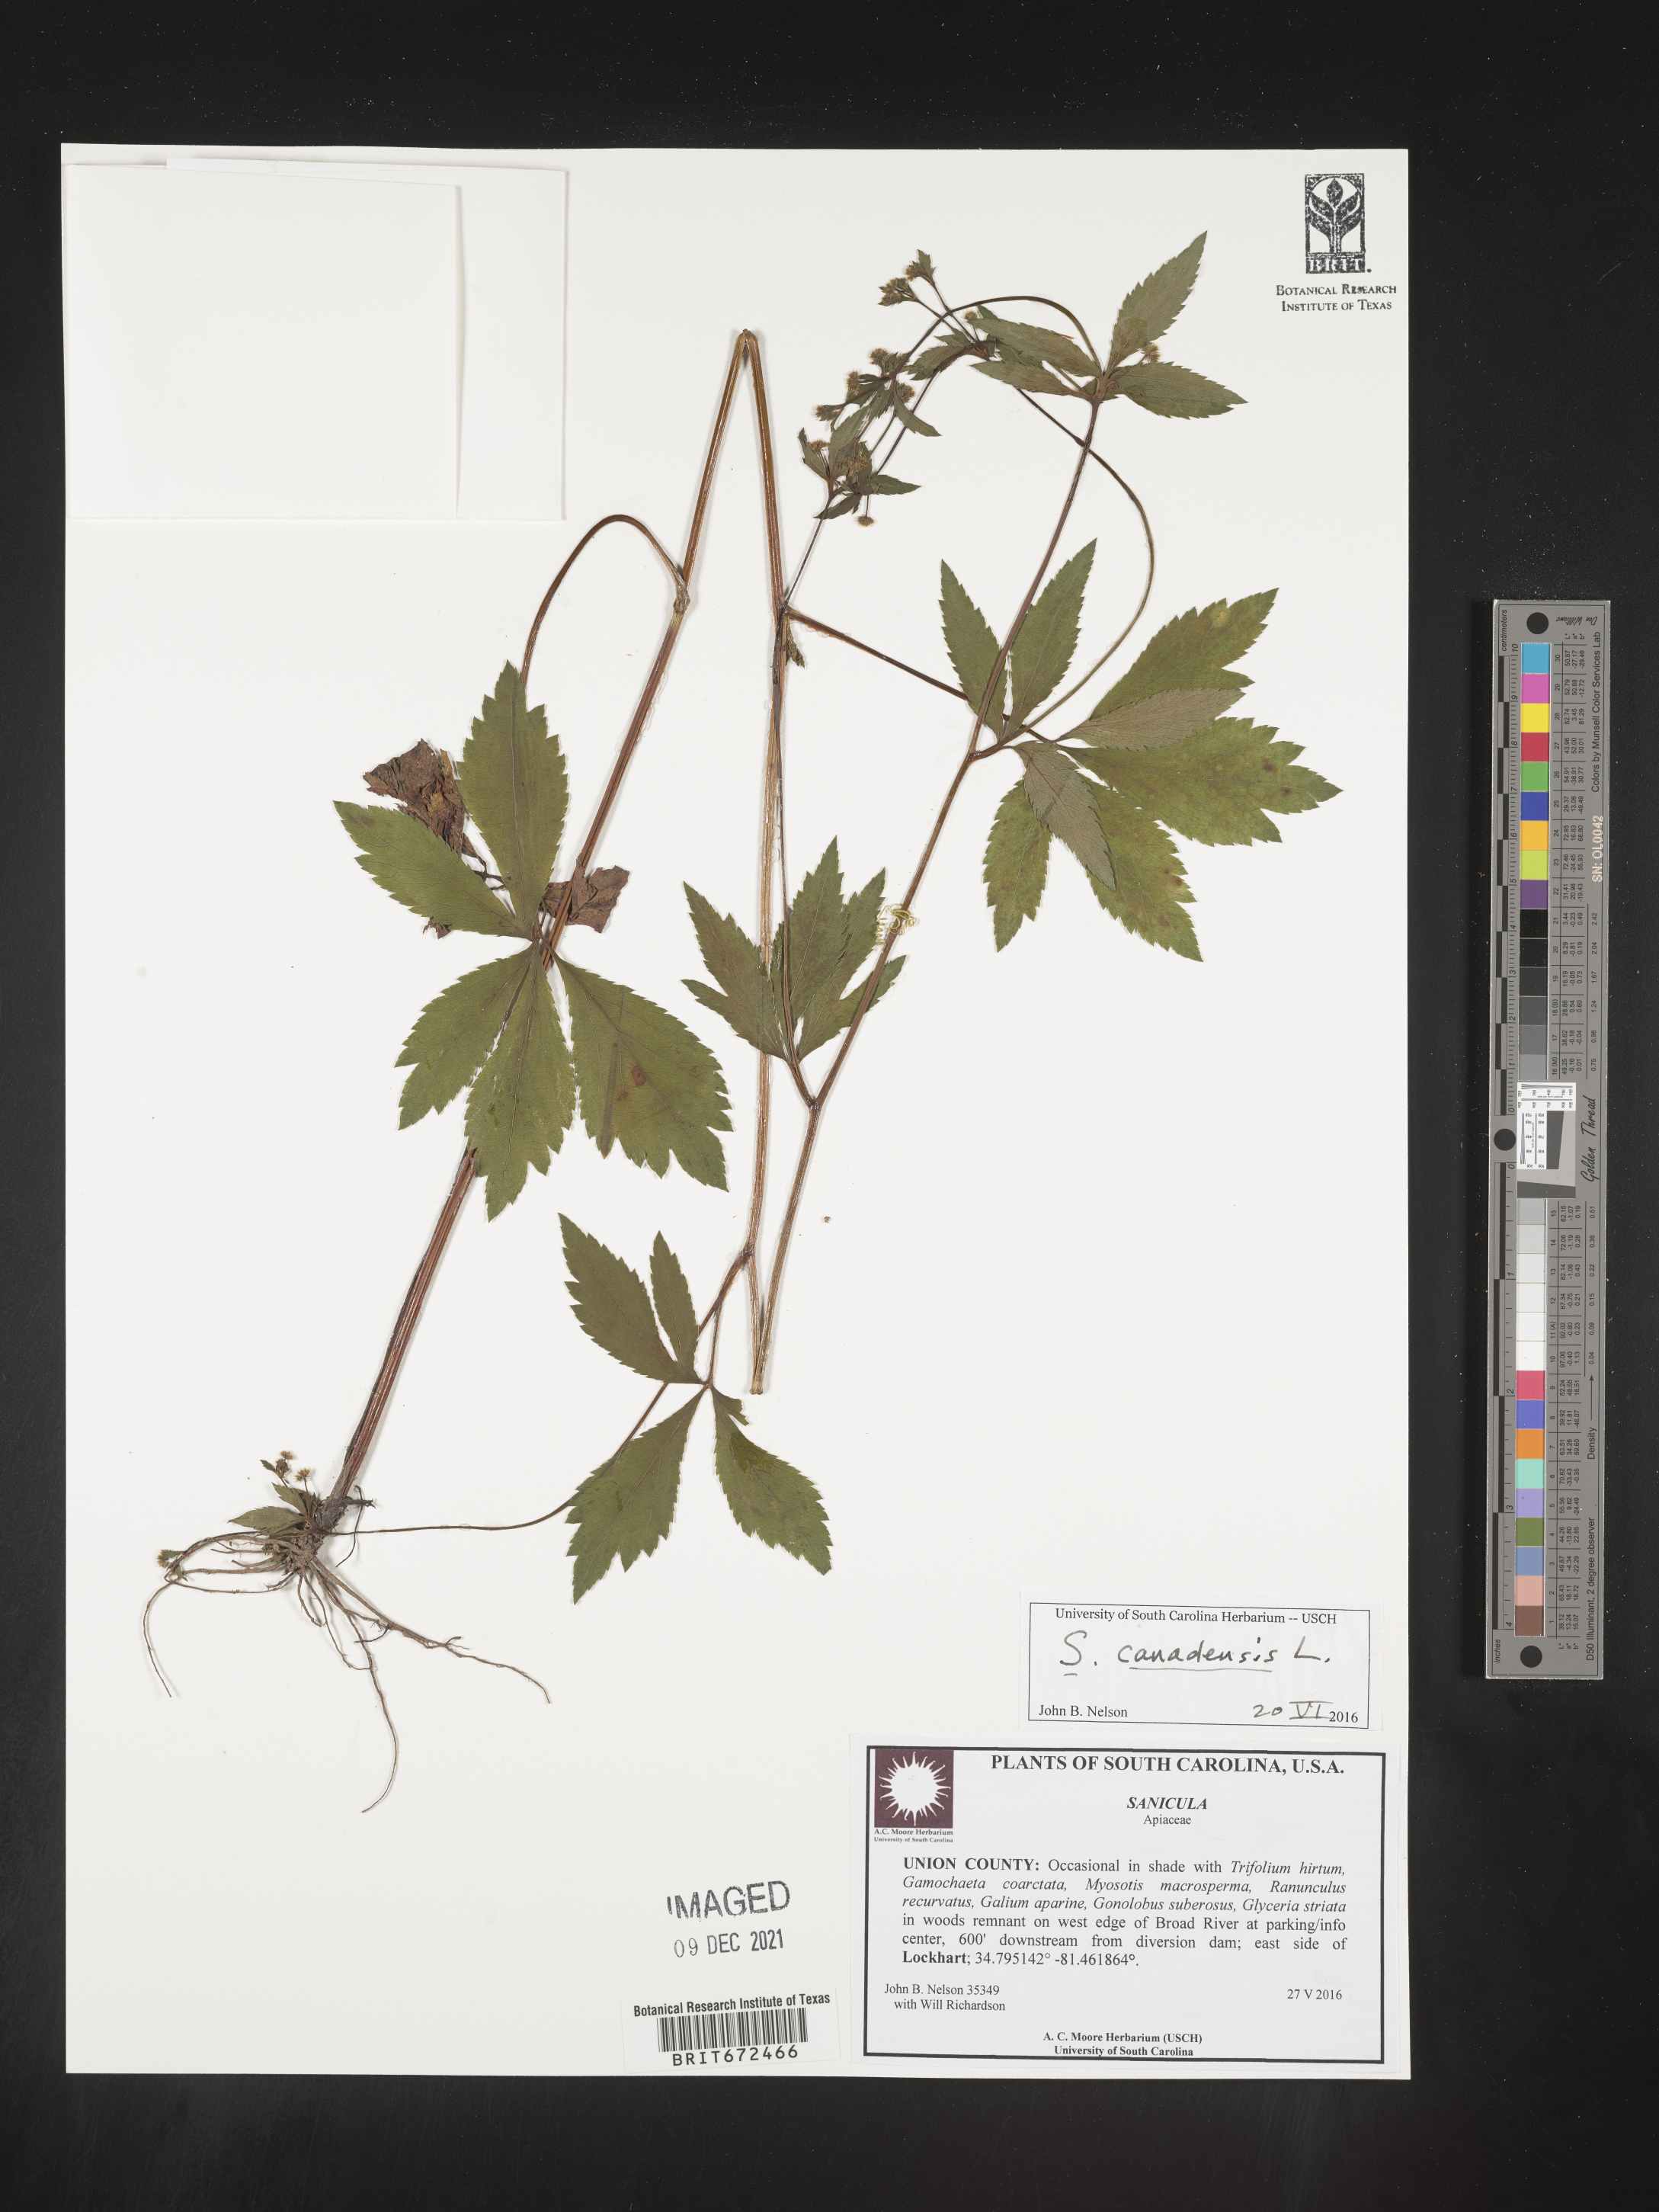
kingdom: Plantae
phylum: Tracheophyta
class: Magnoliopsida
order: Apiales
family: Apiaceae
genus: Sanicula
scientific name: Sanicula canadensis
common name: Canada sanicle
